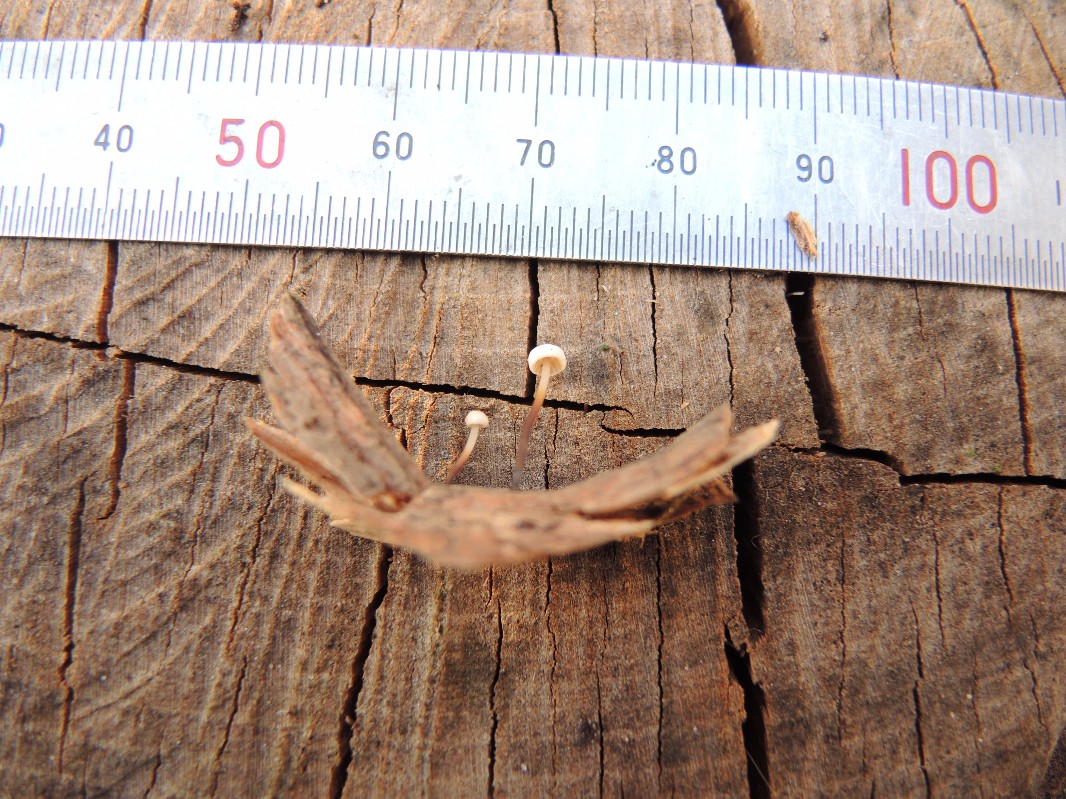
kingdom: Fungi
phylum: Basidiomycota
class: Agaricomycetes
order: Agaricales
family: Marasmiaceae
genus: Marasmius
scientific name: Marasmius rotula
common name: hjul-bruskhat
